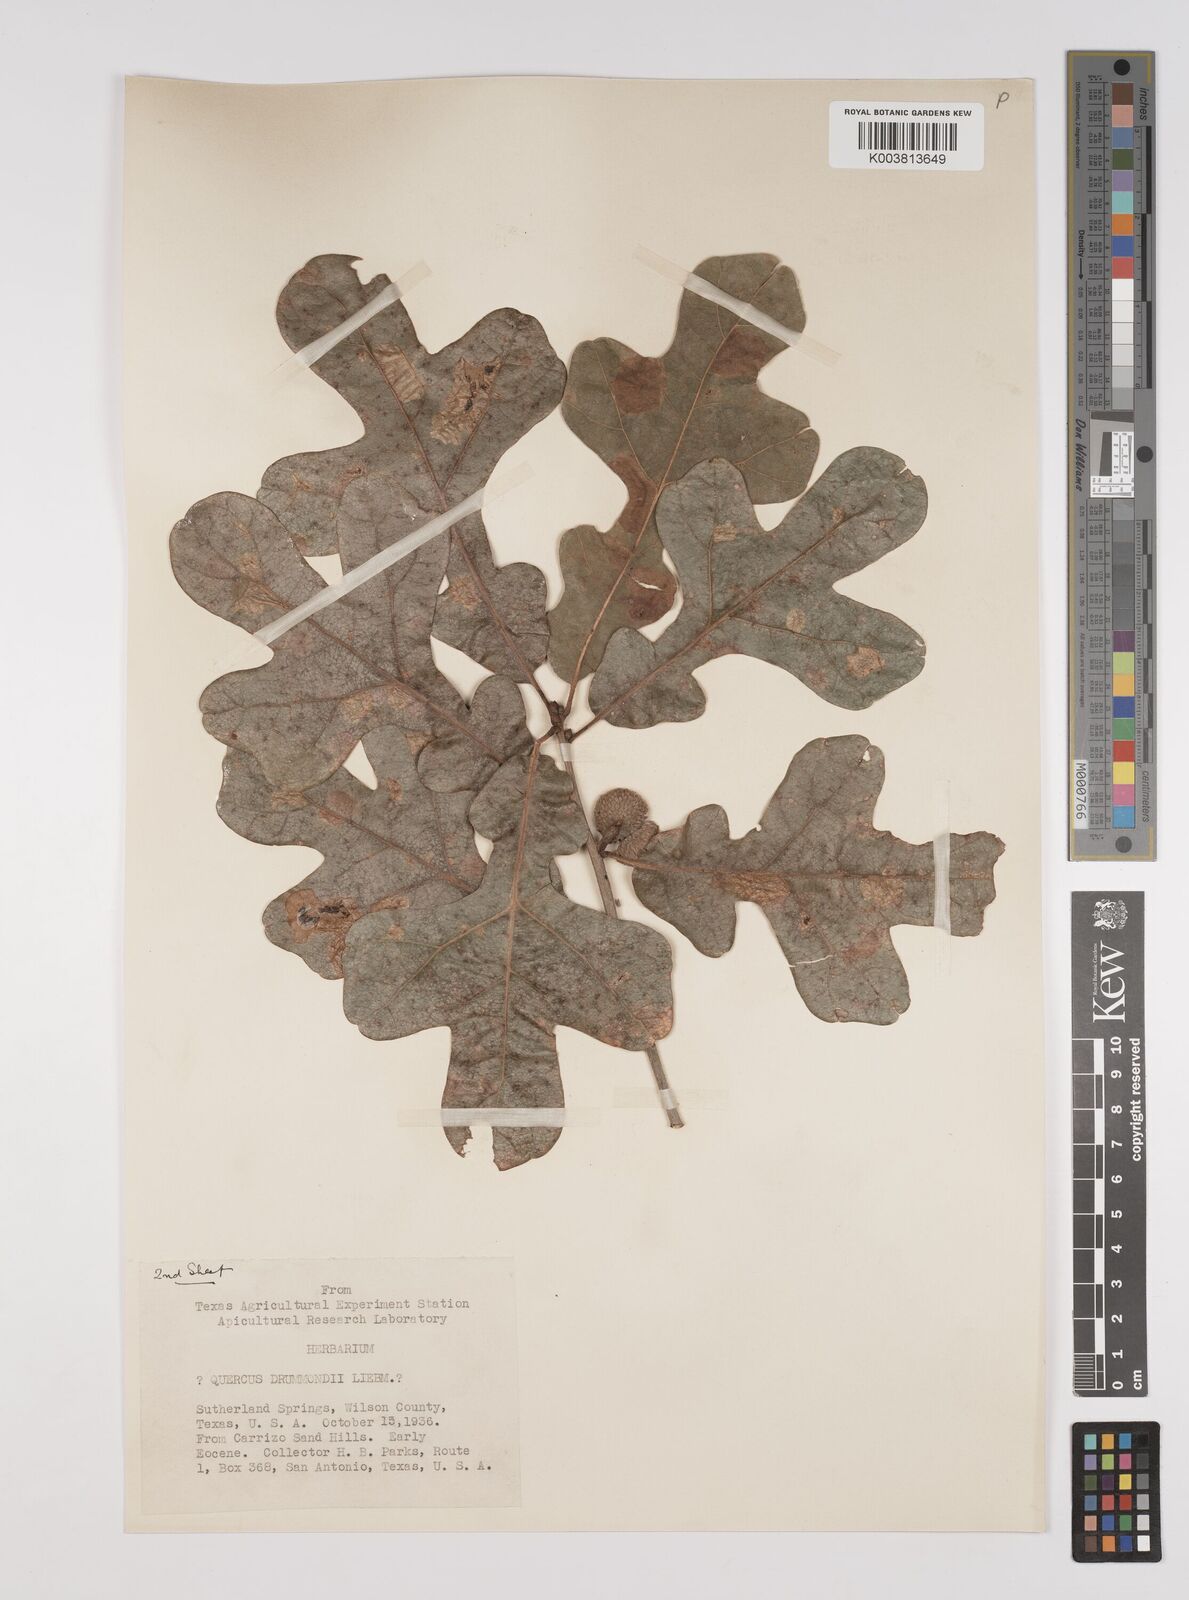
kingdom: Plantae
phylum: Tracheophyta
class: Magnoliopsida
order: Fagales
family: Fagaceae
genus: Quercus
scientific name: Quercus stellata
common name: Post oak
